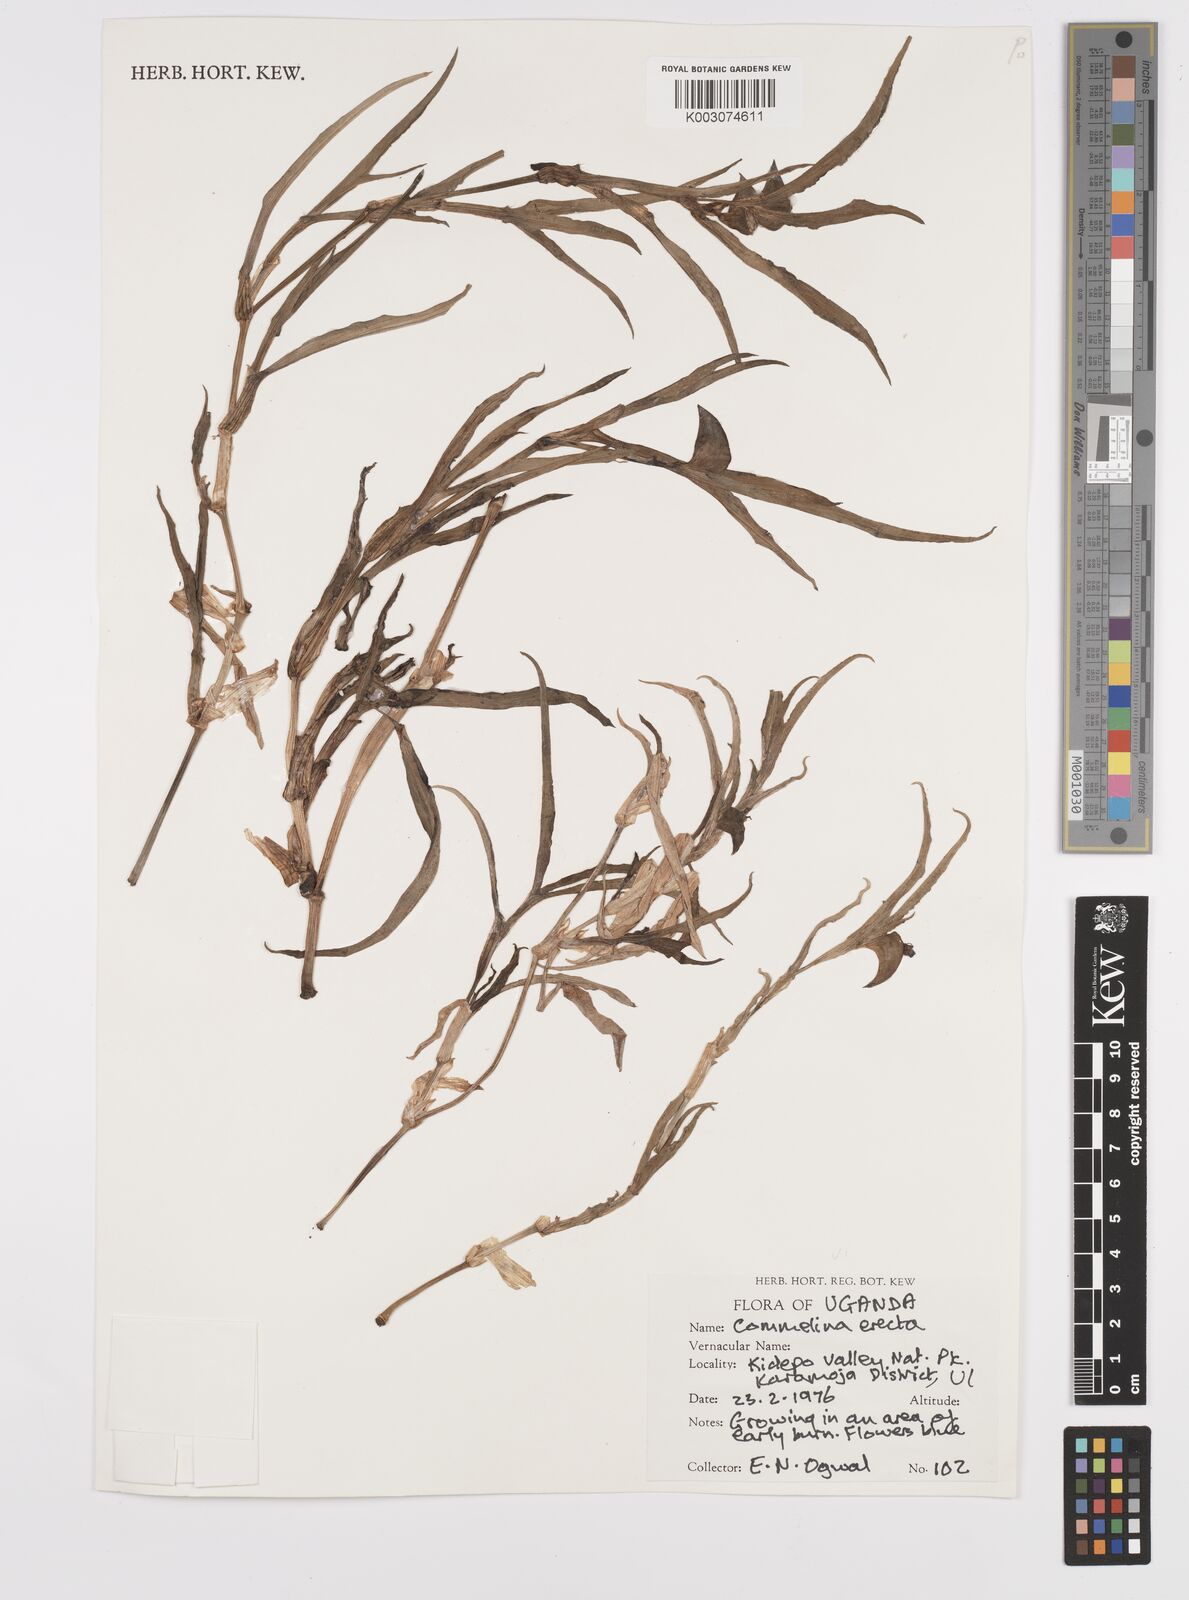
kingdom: Plantae
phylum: Tracheophyta
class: Liliopsida
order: Commelinales
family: Commelinaceae
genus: Commelina
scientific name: Commelina erecta
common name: Blousel blommetjie
